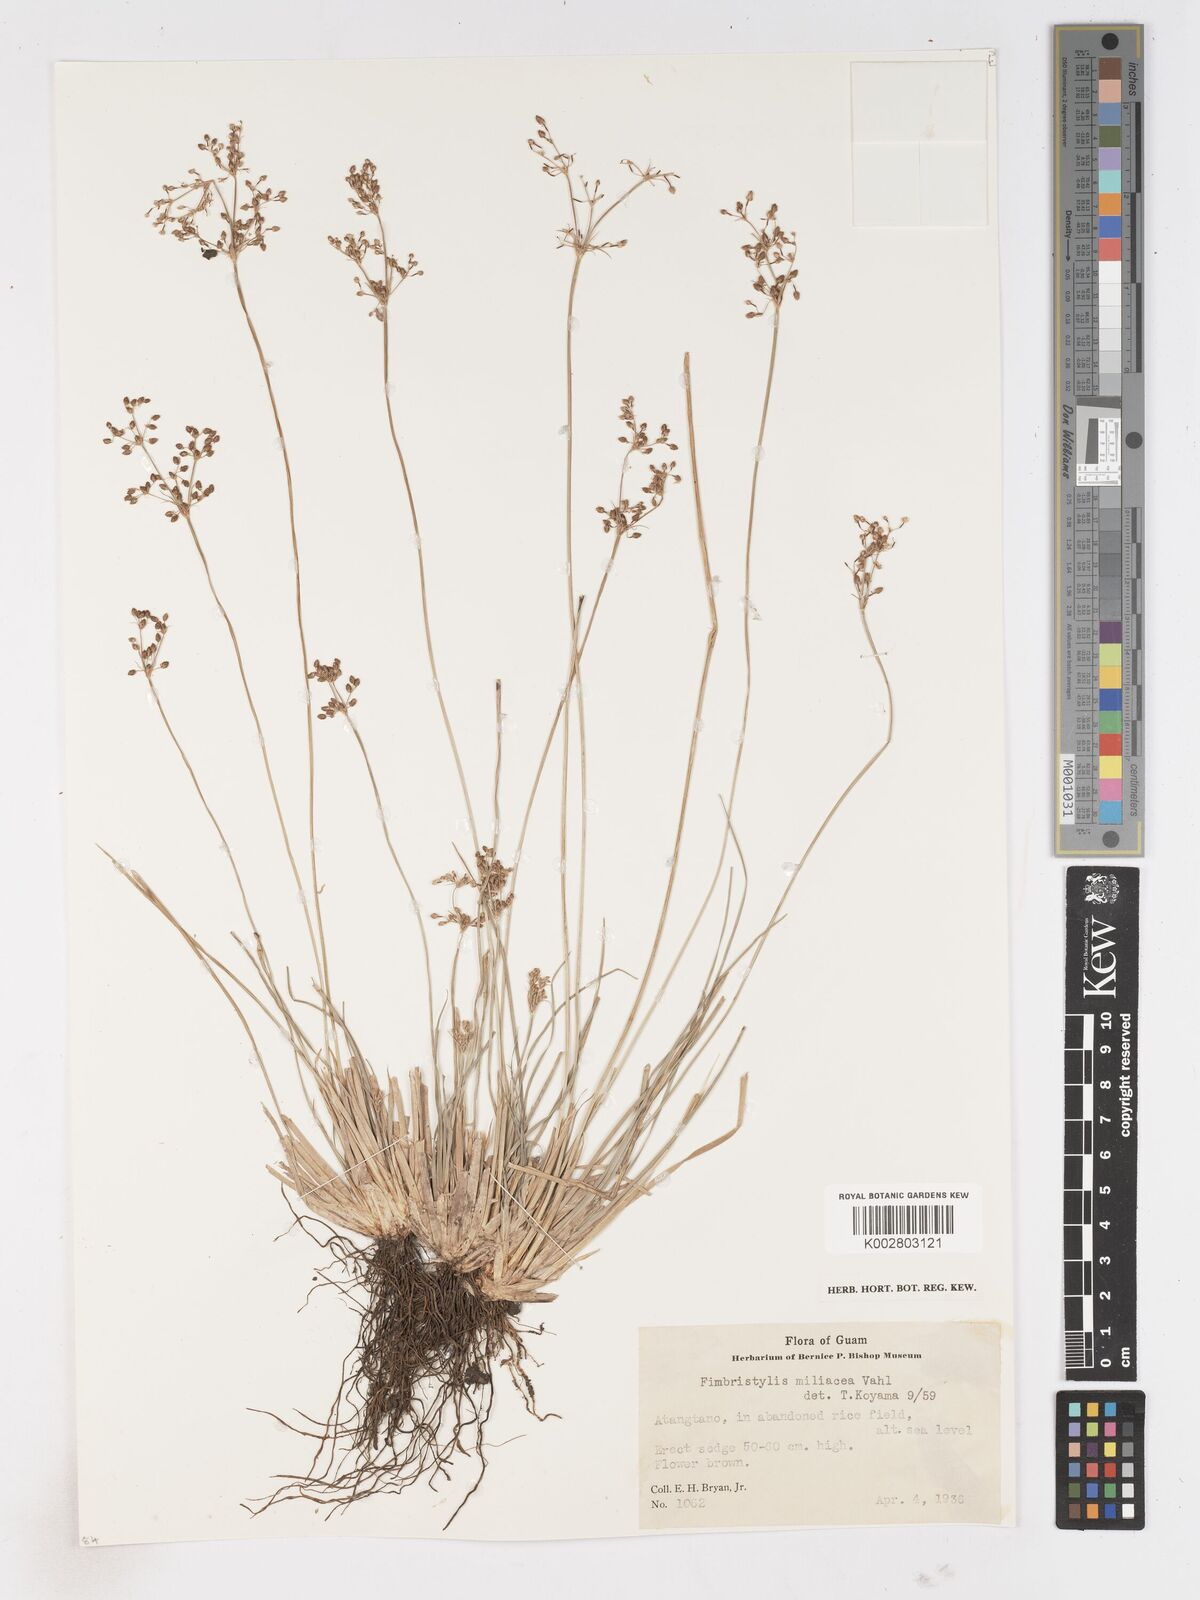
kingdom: Plantae
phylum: Tracheophyta
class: Liliopsida
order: Poales
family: Cyperaceae
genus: Fimbristylis
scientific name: Fimbristylis littoralis
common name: Fimbry
